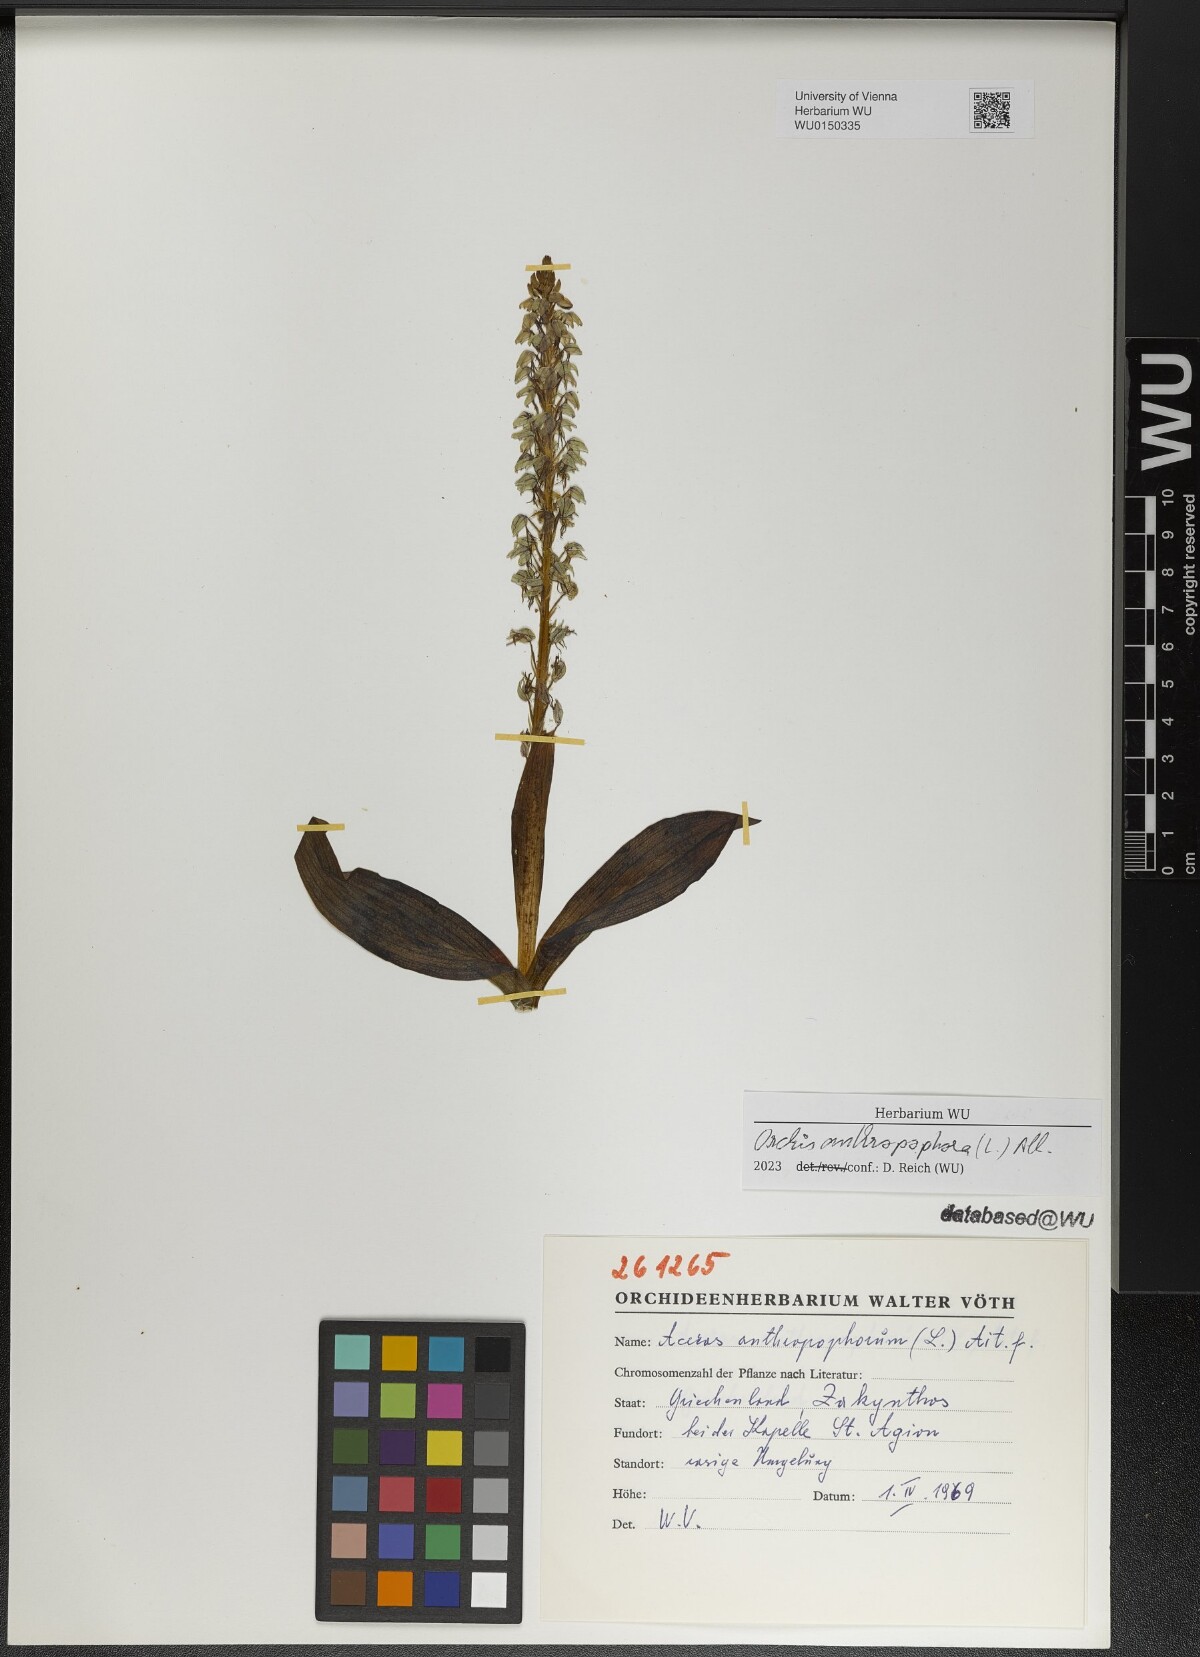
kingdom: Plantae
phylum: Tracheophyta
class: Liliopsida
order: Asparagales
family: Orchidaceae
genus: Orchis
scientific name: Orchis anthropophora
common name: Man orchid
